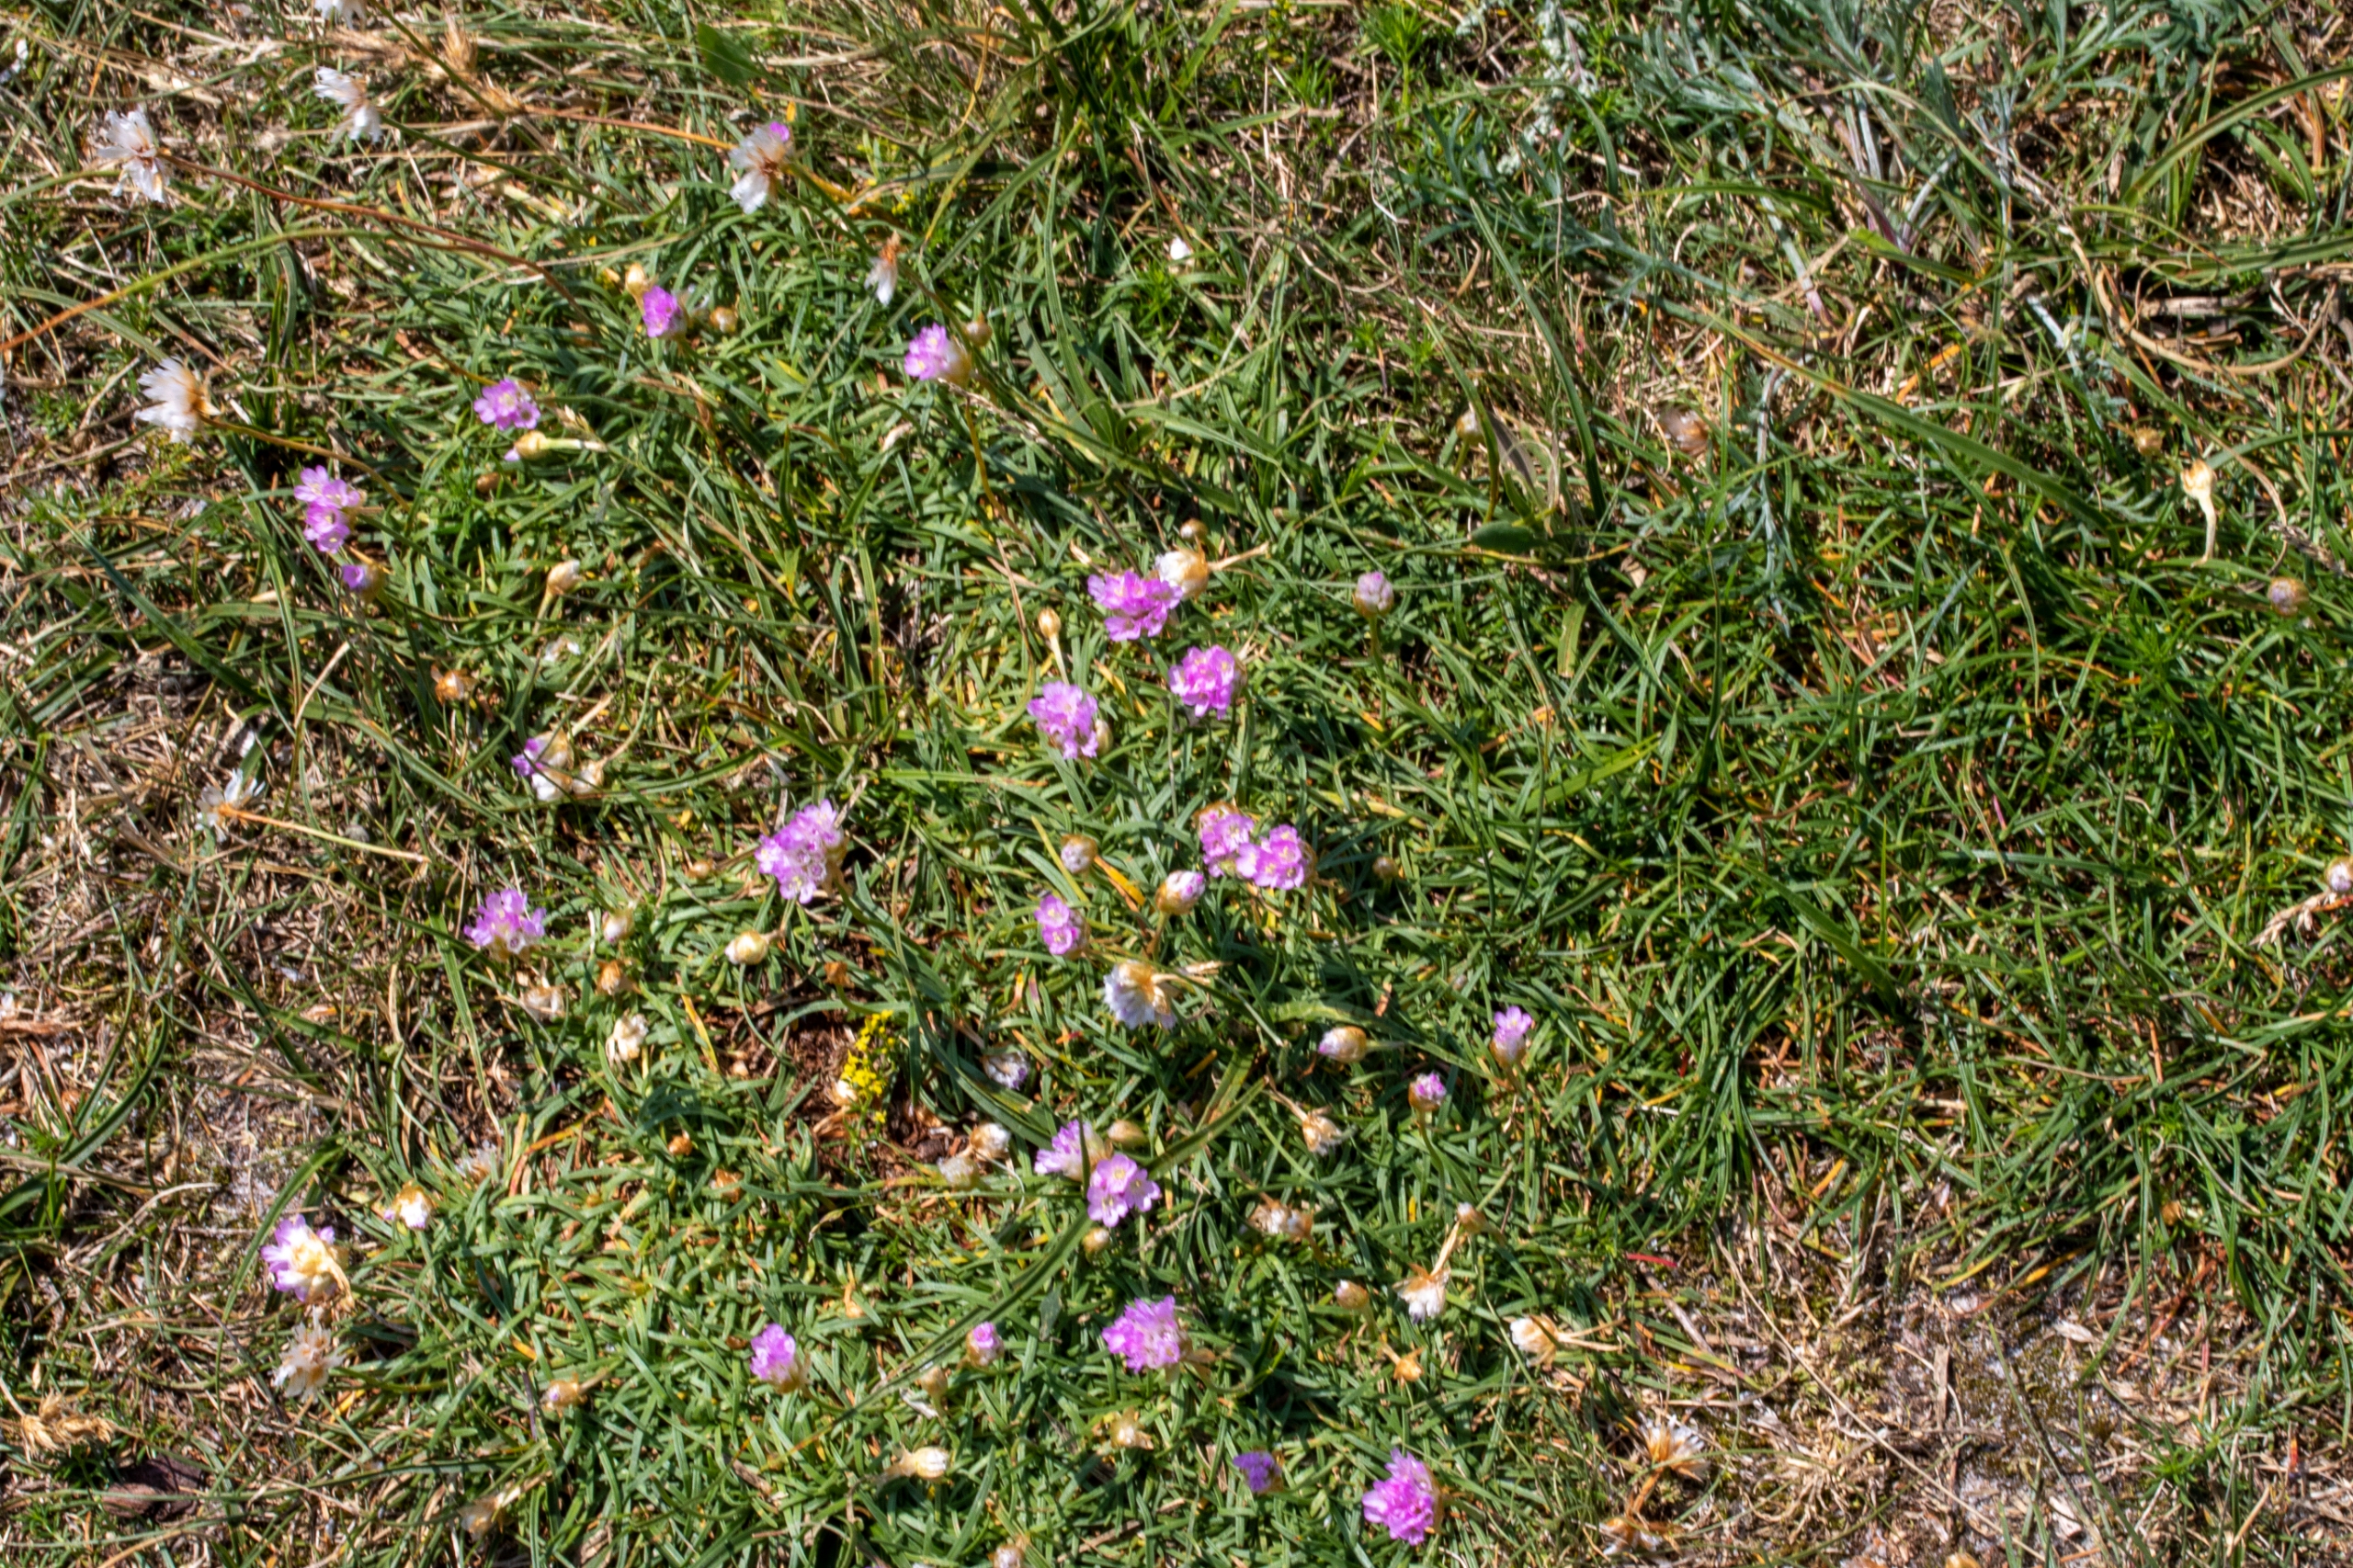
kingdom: Plantae
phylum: Tracheophyta
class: Magnoliopsida
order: Caryophyllales
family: Plumbaginaceae
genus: Armeria
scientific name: Armeria maritima
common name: Engelskgræs
